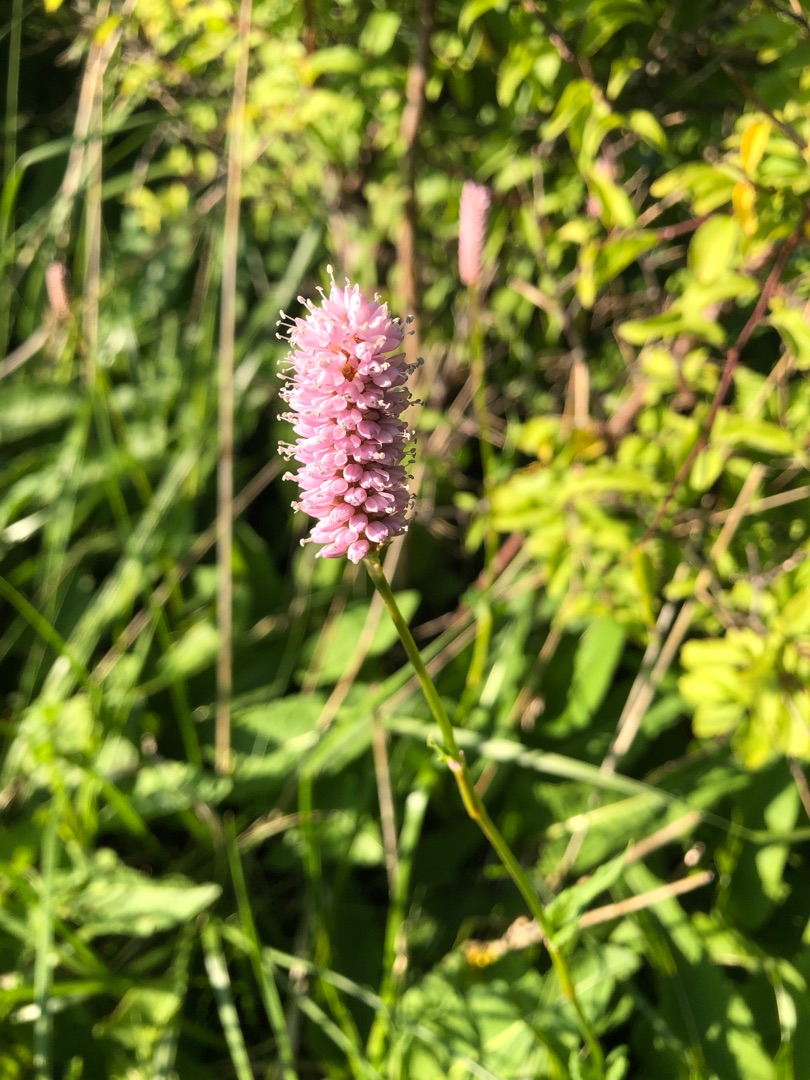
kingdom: Plantae
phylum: Tracheophyta
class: Magnoliopsida
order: Caryophyllales
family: Polygonaceae
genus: Bistorta
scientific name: Bistorta officinalis
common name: Slangeurt
